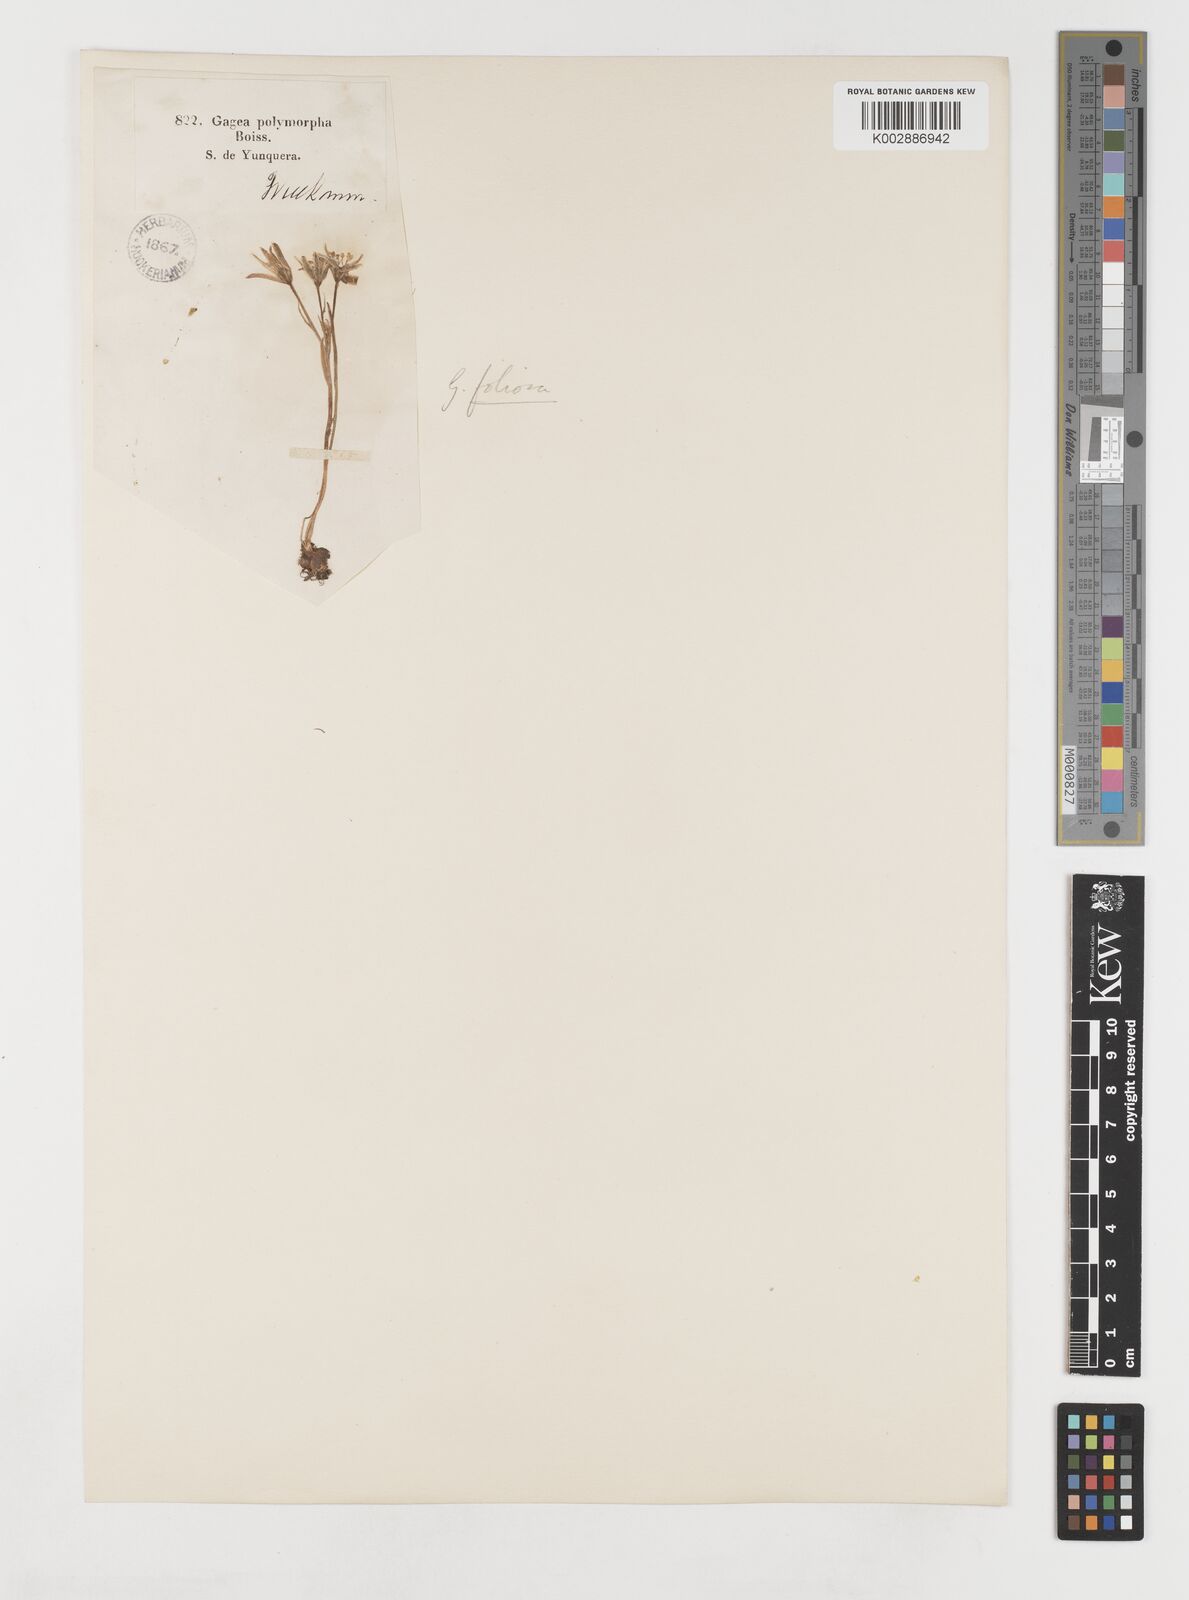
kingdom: Plantae
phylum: Tracheophyta
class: Liliopsida
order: Liliales
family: Liliaceae
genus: Gagea
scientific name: Gagea foliosa
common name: Leafy gagea
